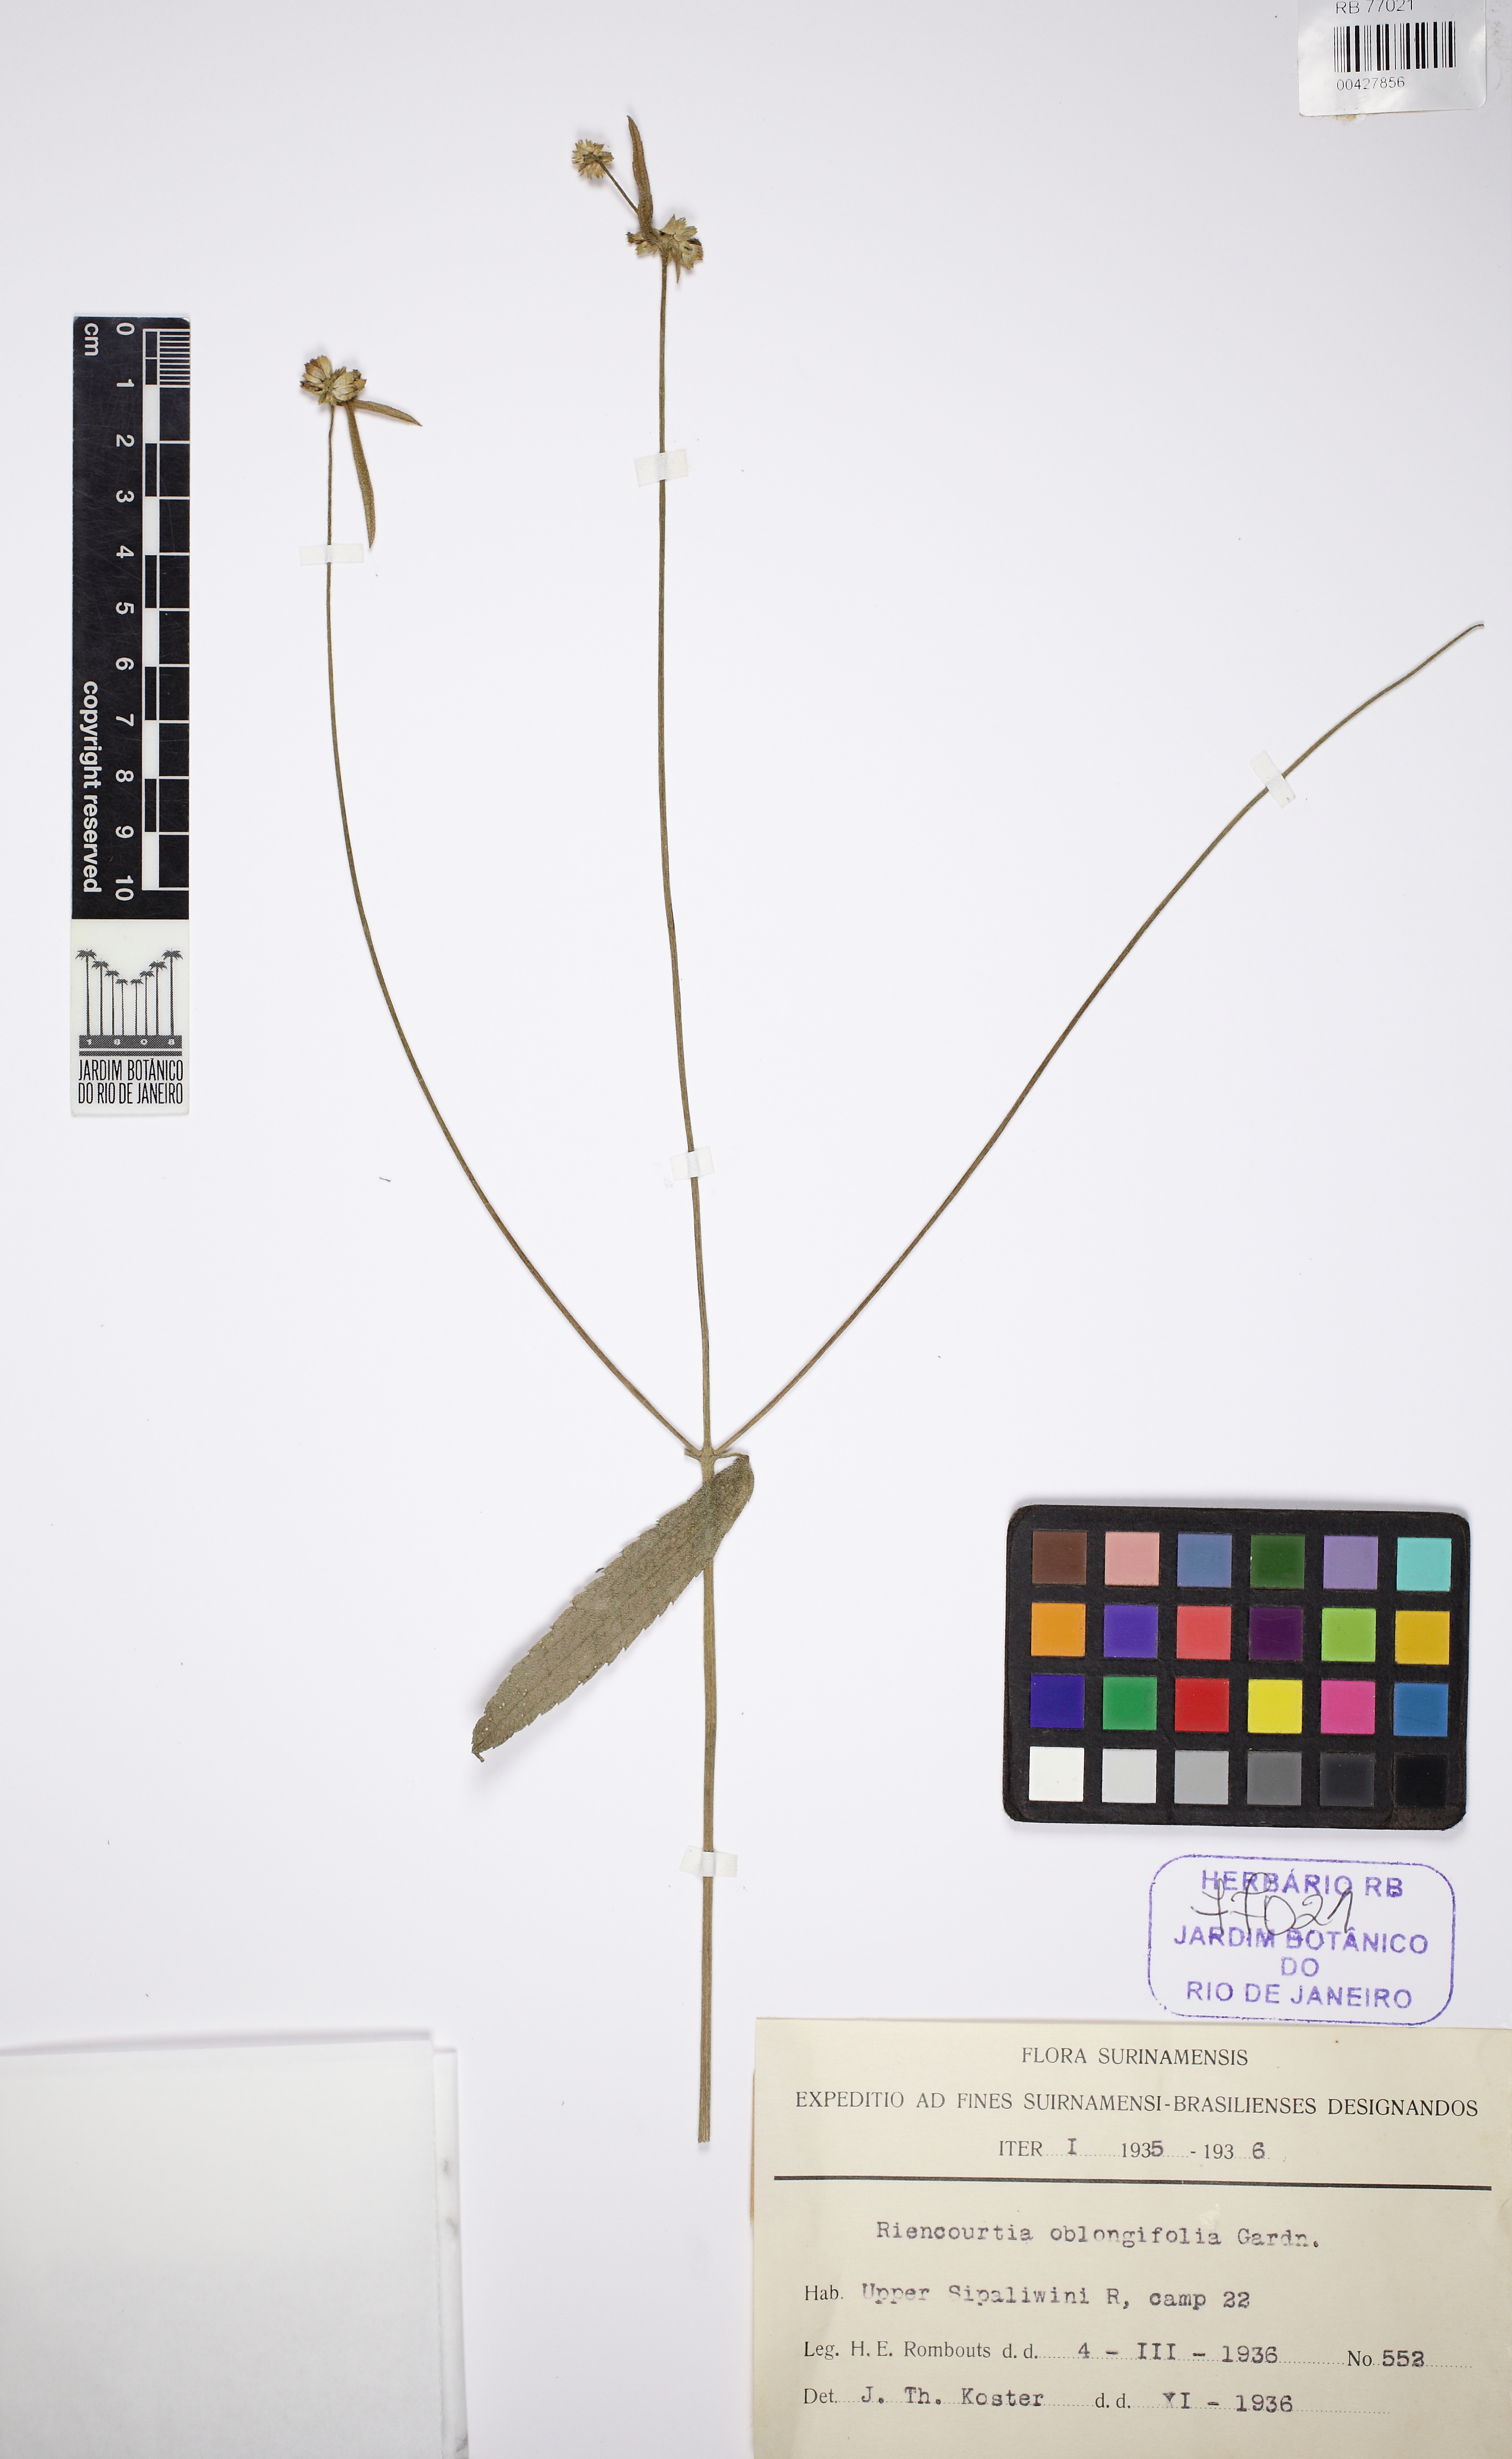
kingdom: Plantae
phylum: Tracheophyta
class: Magnoliopsida
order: Asterales
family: Asteraceae
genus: Riencourtia
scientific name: Riencourtia oblongifolia
